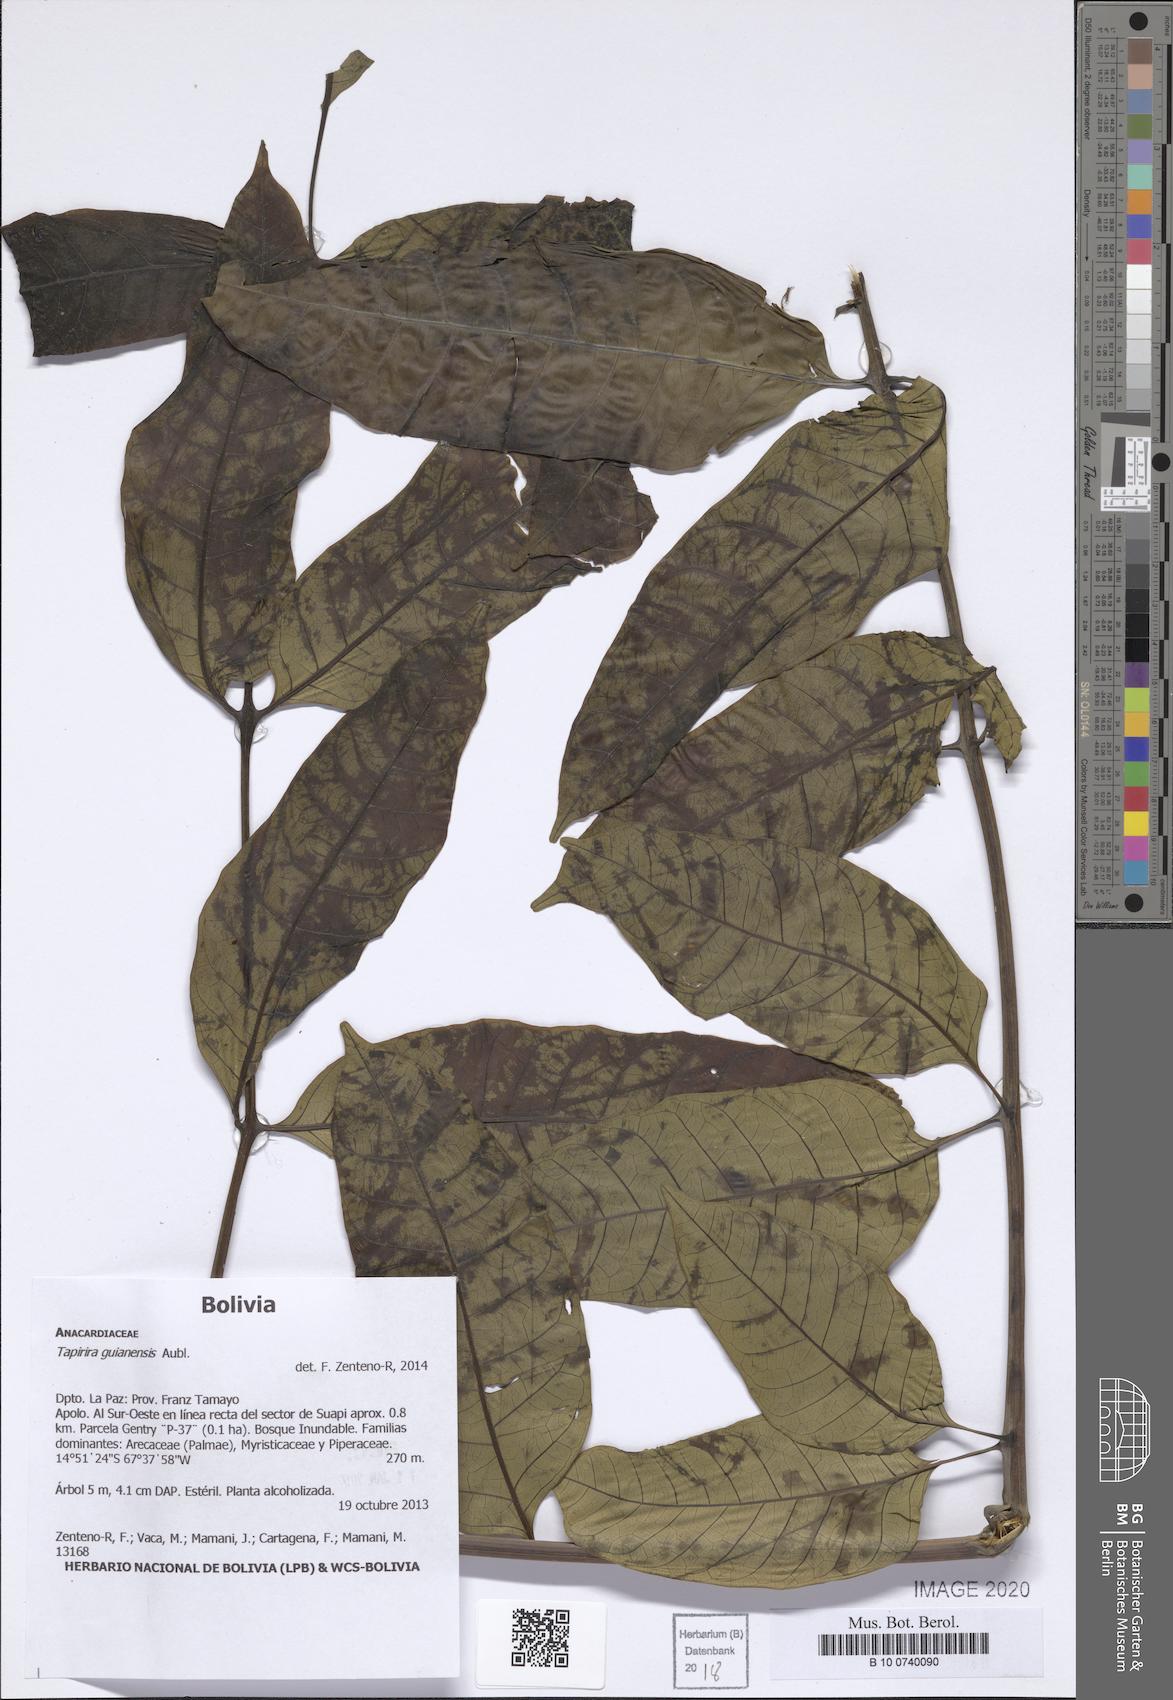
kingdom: Plantae
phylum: Tracheophyta
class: Magnoliopsida
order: Sapindales
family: Anacardiaceae
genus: Tapirira
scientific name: Tapirira guianensis
